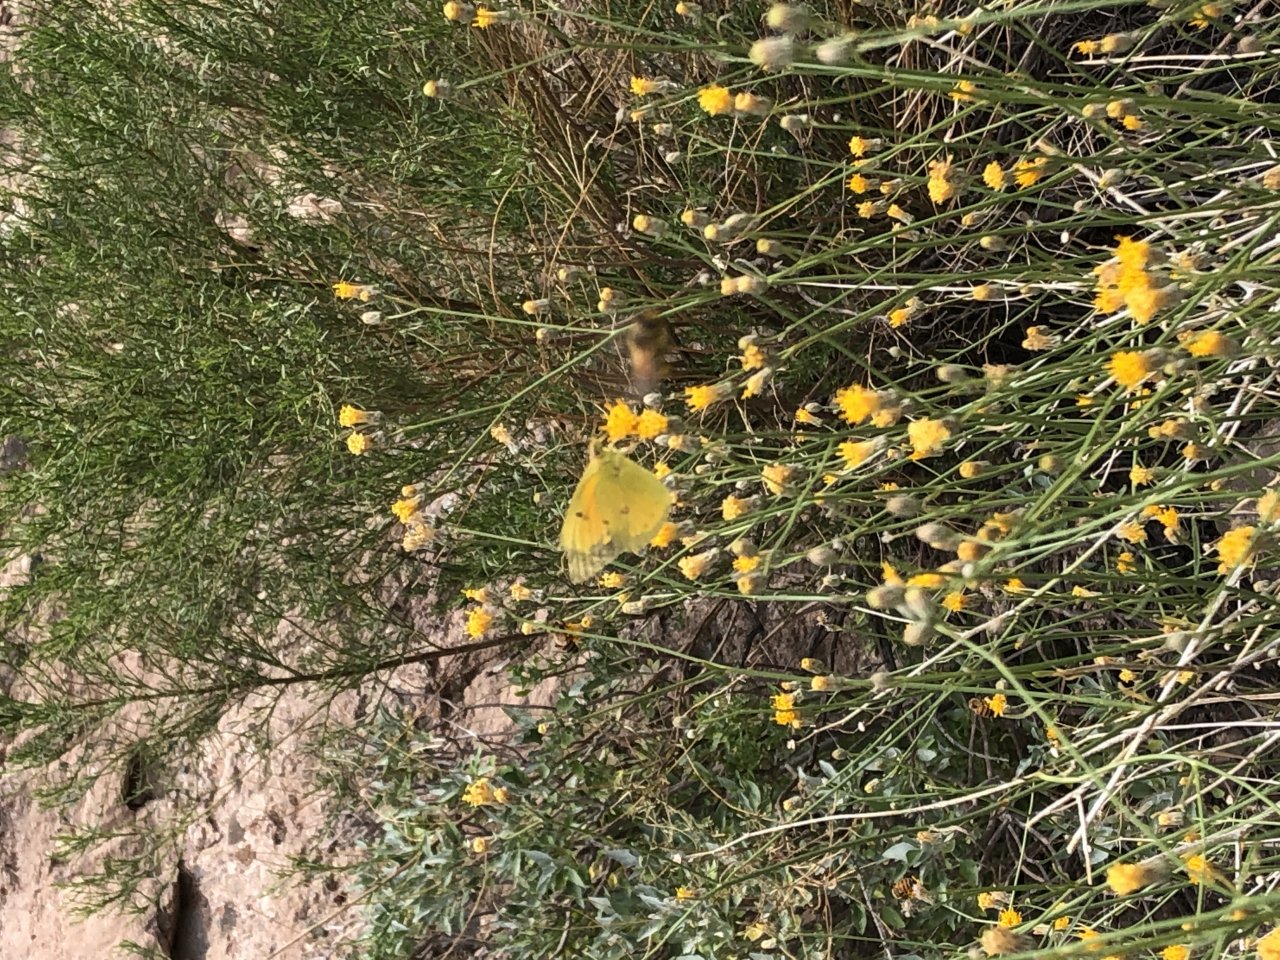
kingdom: Animalia
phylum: Arthropoda
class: Insecta
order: Lepidoptera
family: Pieridae
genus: Colias
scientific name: Colias eurytheme
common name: Orange Sulphur
